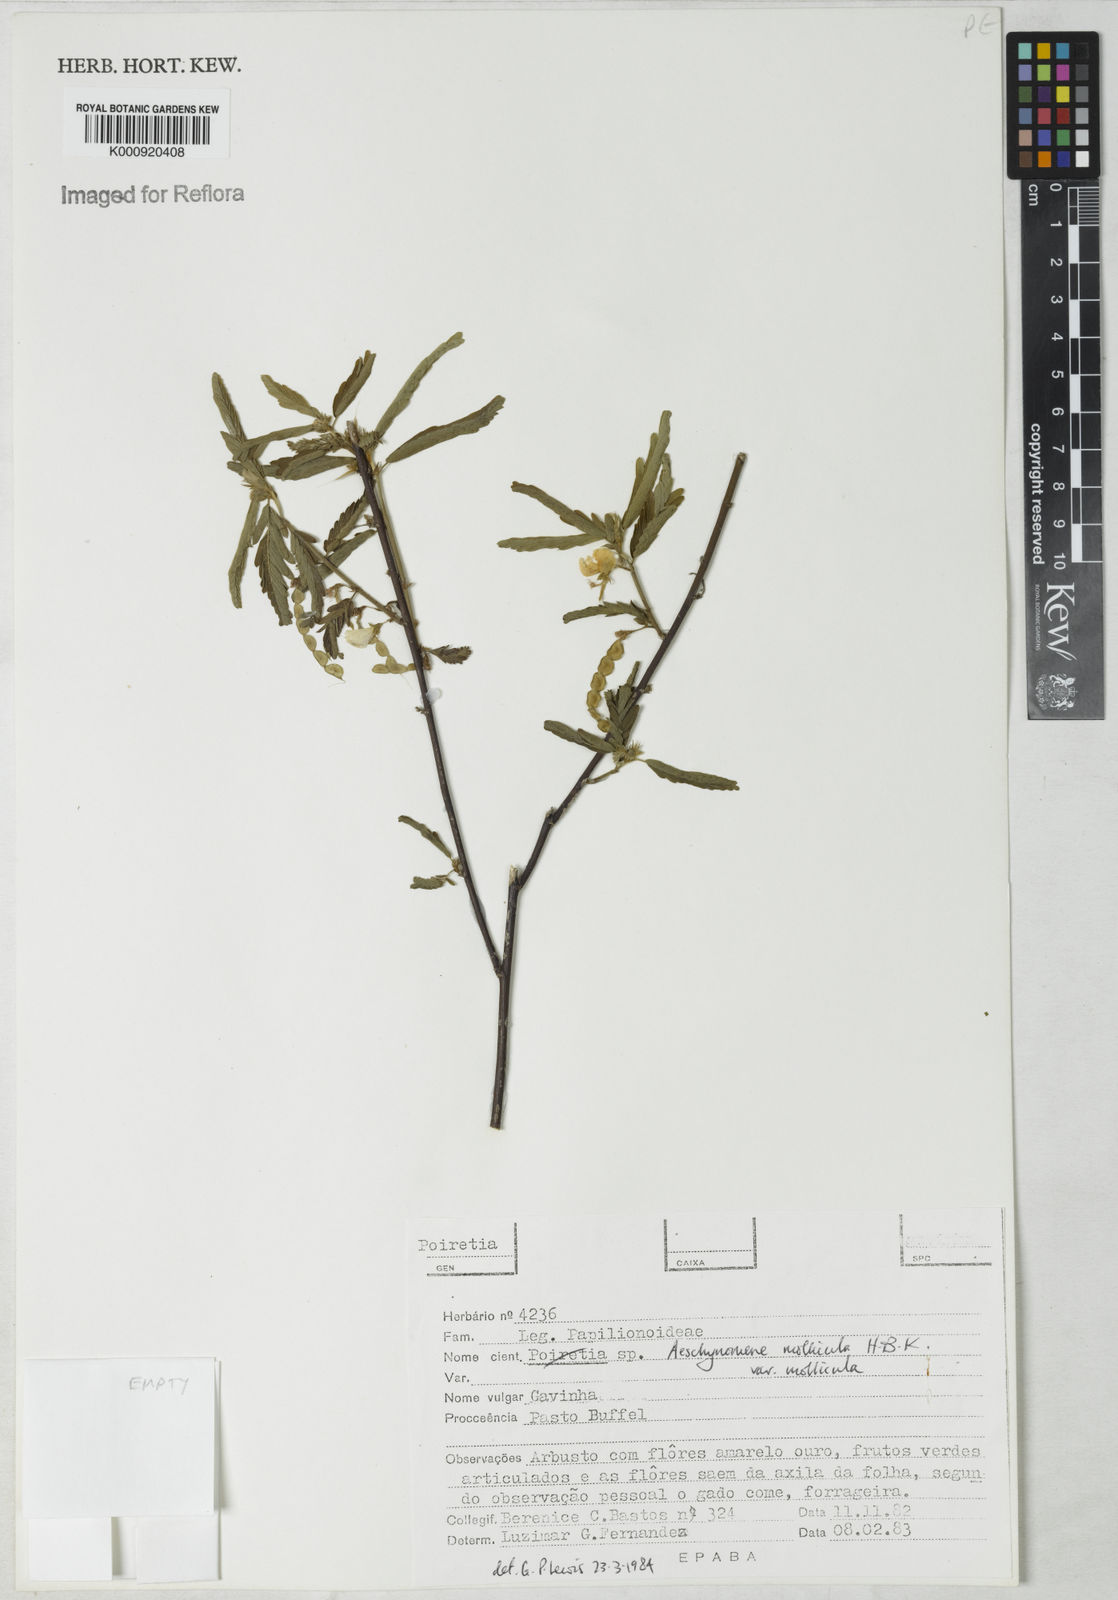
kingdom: Plantae
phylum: Tracheophyta
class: Magnoliopsida
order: Fabales
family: Fabaceae
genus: Ctenodon
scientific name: Ctenodon molliculus
